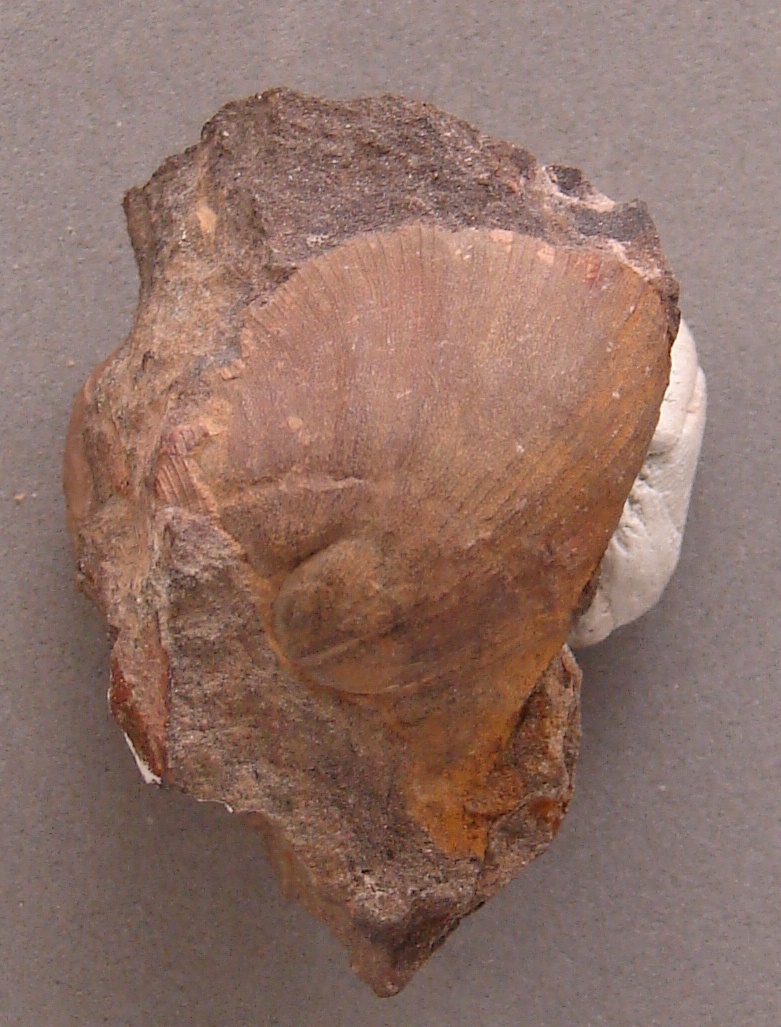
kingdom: Animalia
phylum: Arthropoda
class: Trilobita
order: Phacopida
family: Acastidae
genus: Pilletina
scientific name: Pilletina oeslingiana
